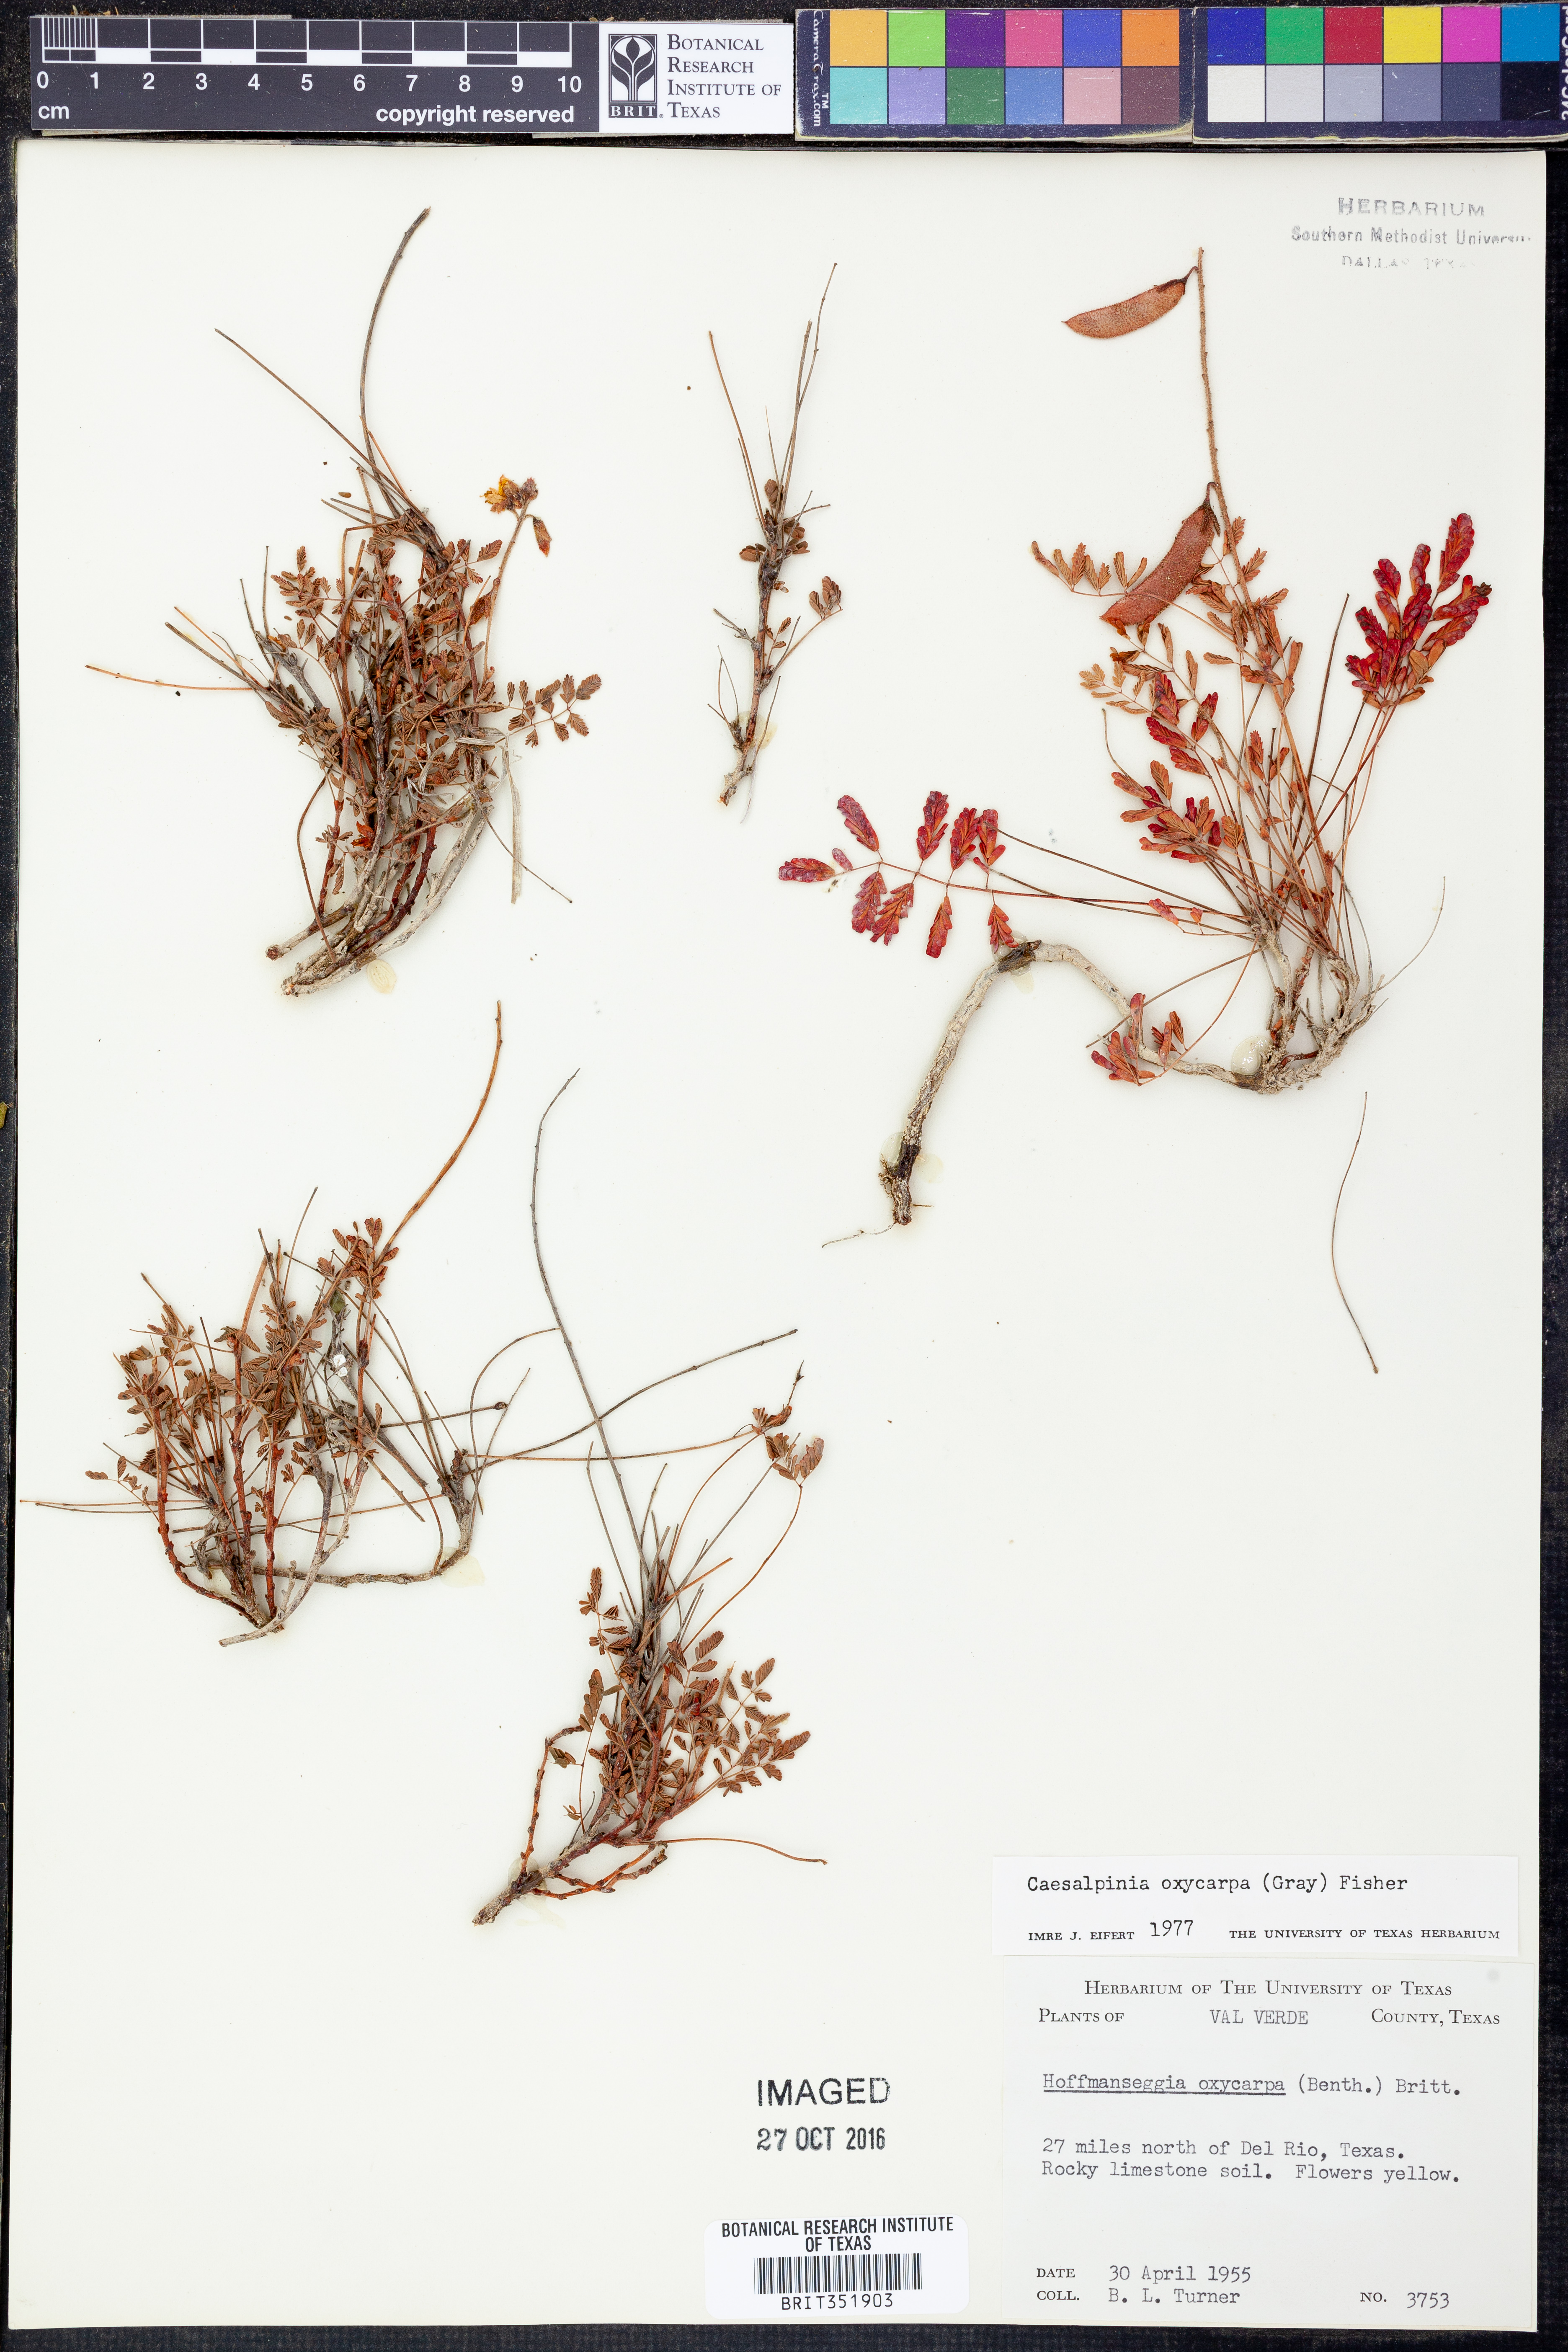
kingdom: Plantae
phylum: Tracheophyta
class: Magnoliopsida
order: Fabales
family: Fabaceae
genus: Hoffmannseggia
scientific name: Hoffmannseggia oxycarpa
